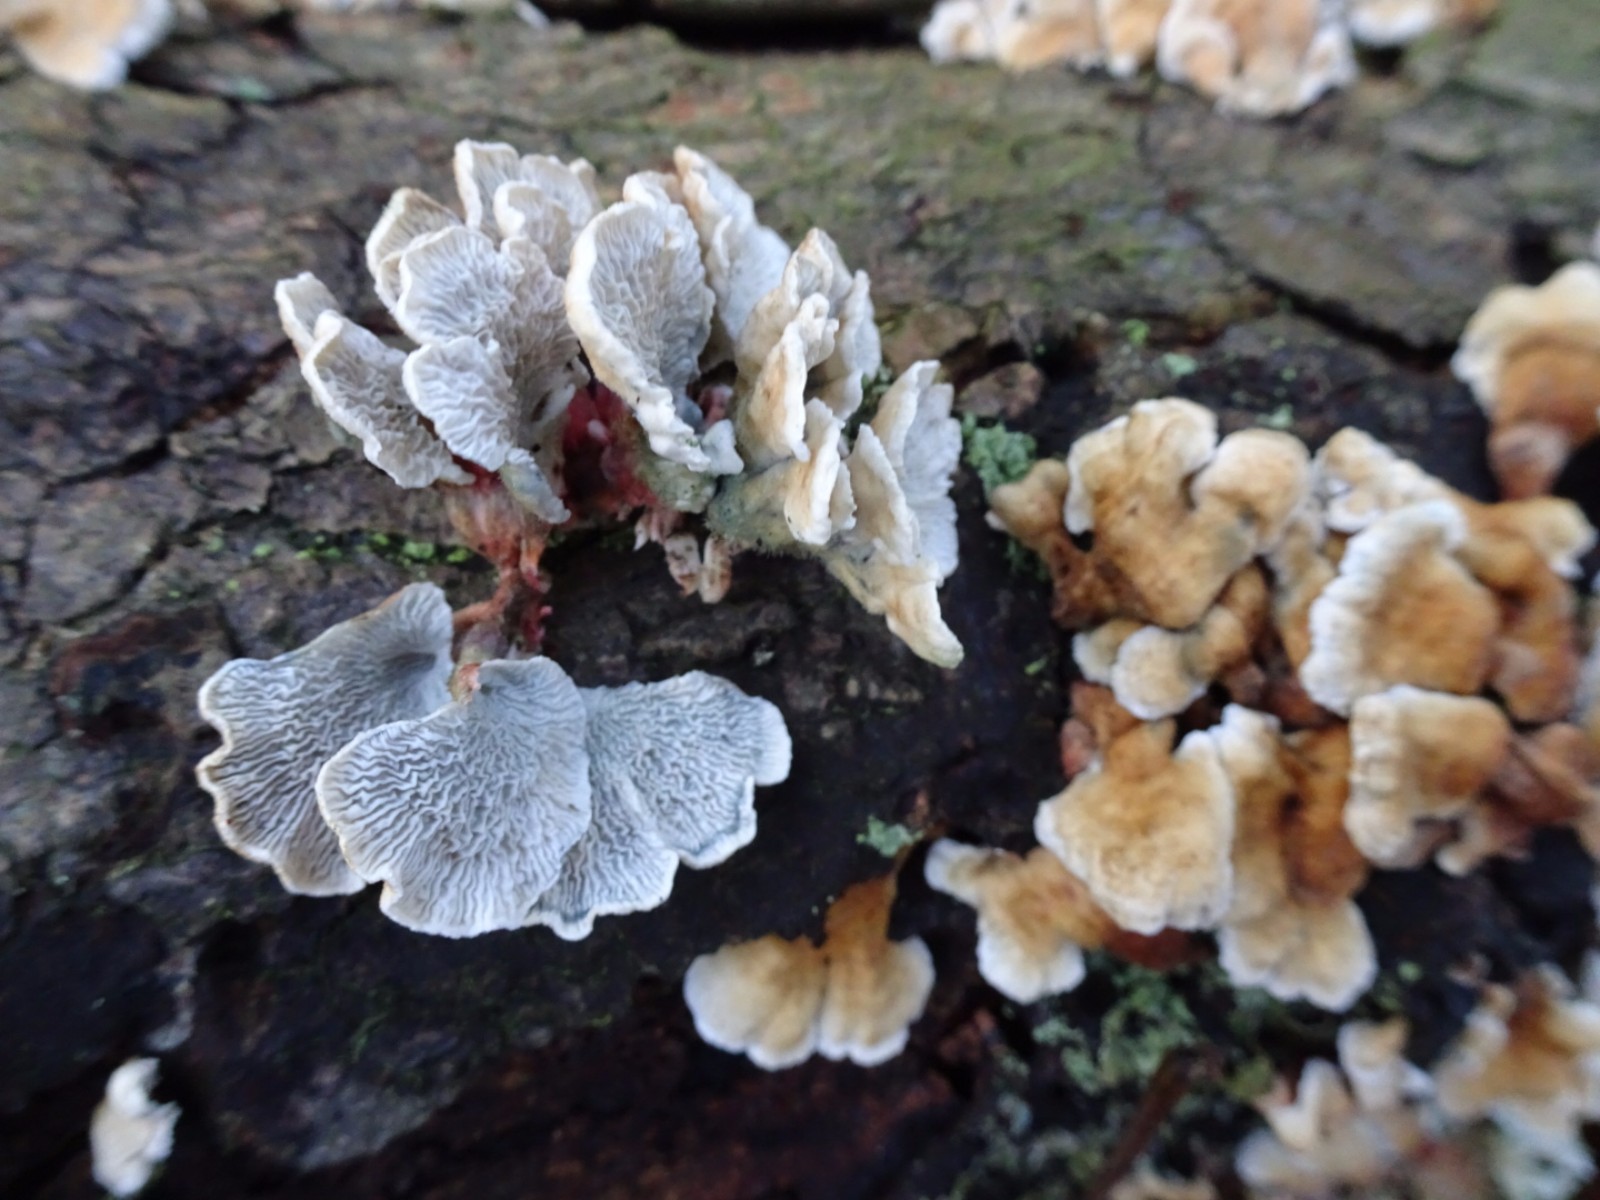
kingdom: Fungi
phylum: Basidiomycota
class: Agaricomycetes
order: Amylocorticiales
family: Amylocorticiaceae
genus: Plicaturopsis
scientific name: Plicaturopsis crispa
